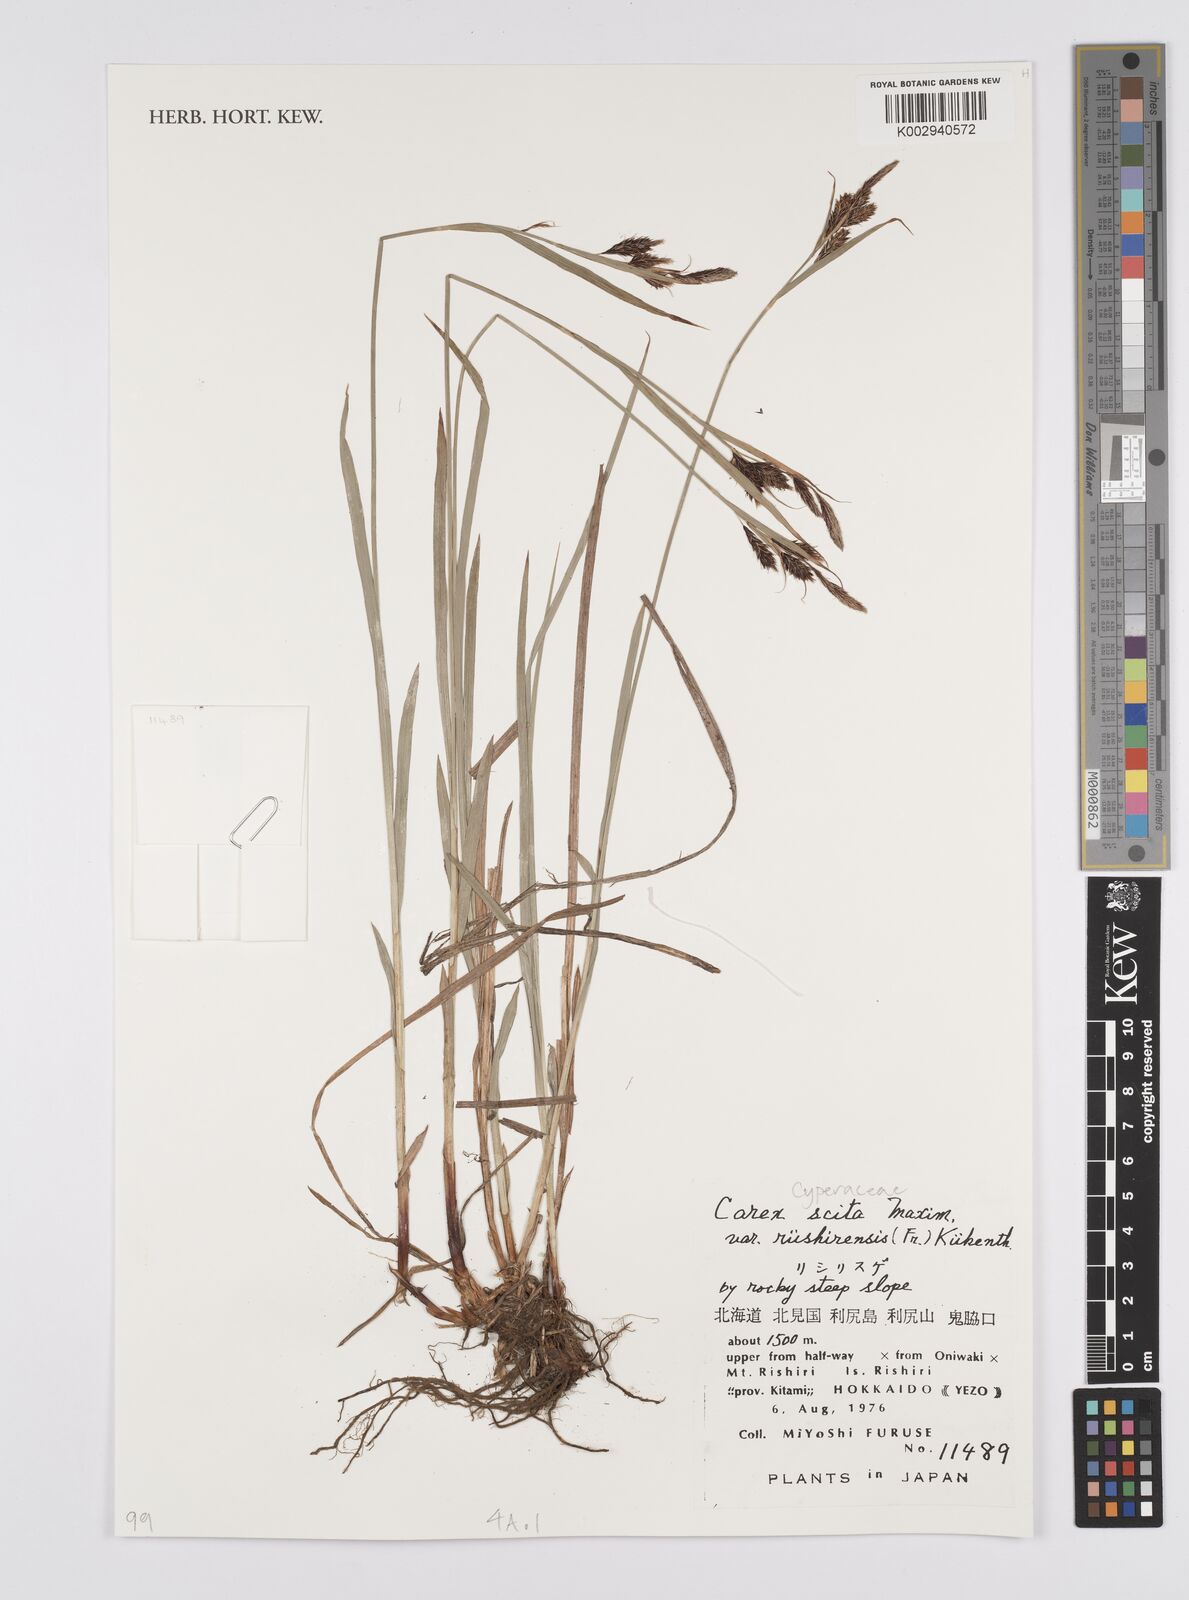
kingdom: Plantae
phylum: Tracheophyta
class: Liliopsida
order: Poales
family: Cyperaceae
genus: Carex
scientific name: Carex scita
